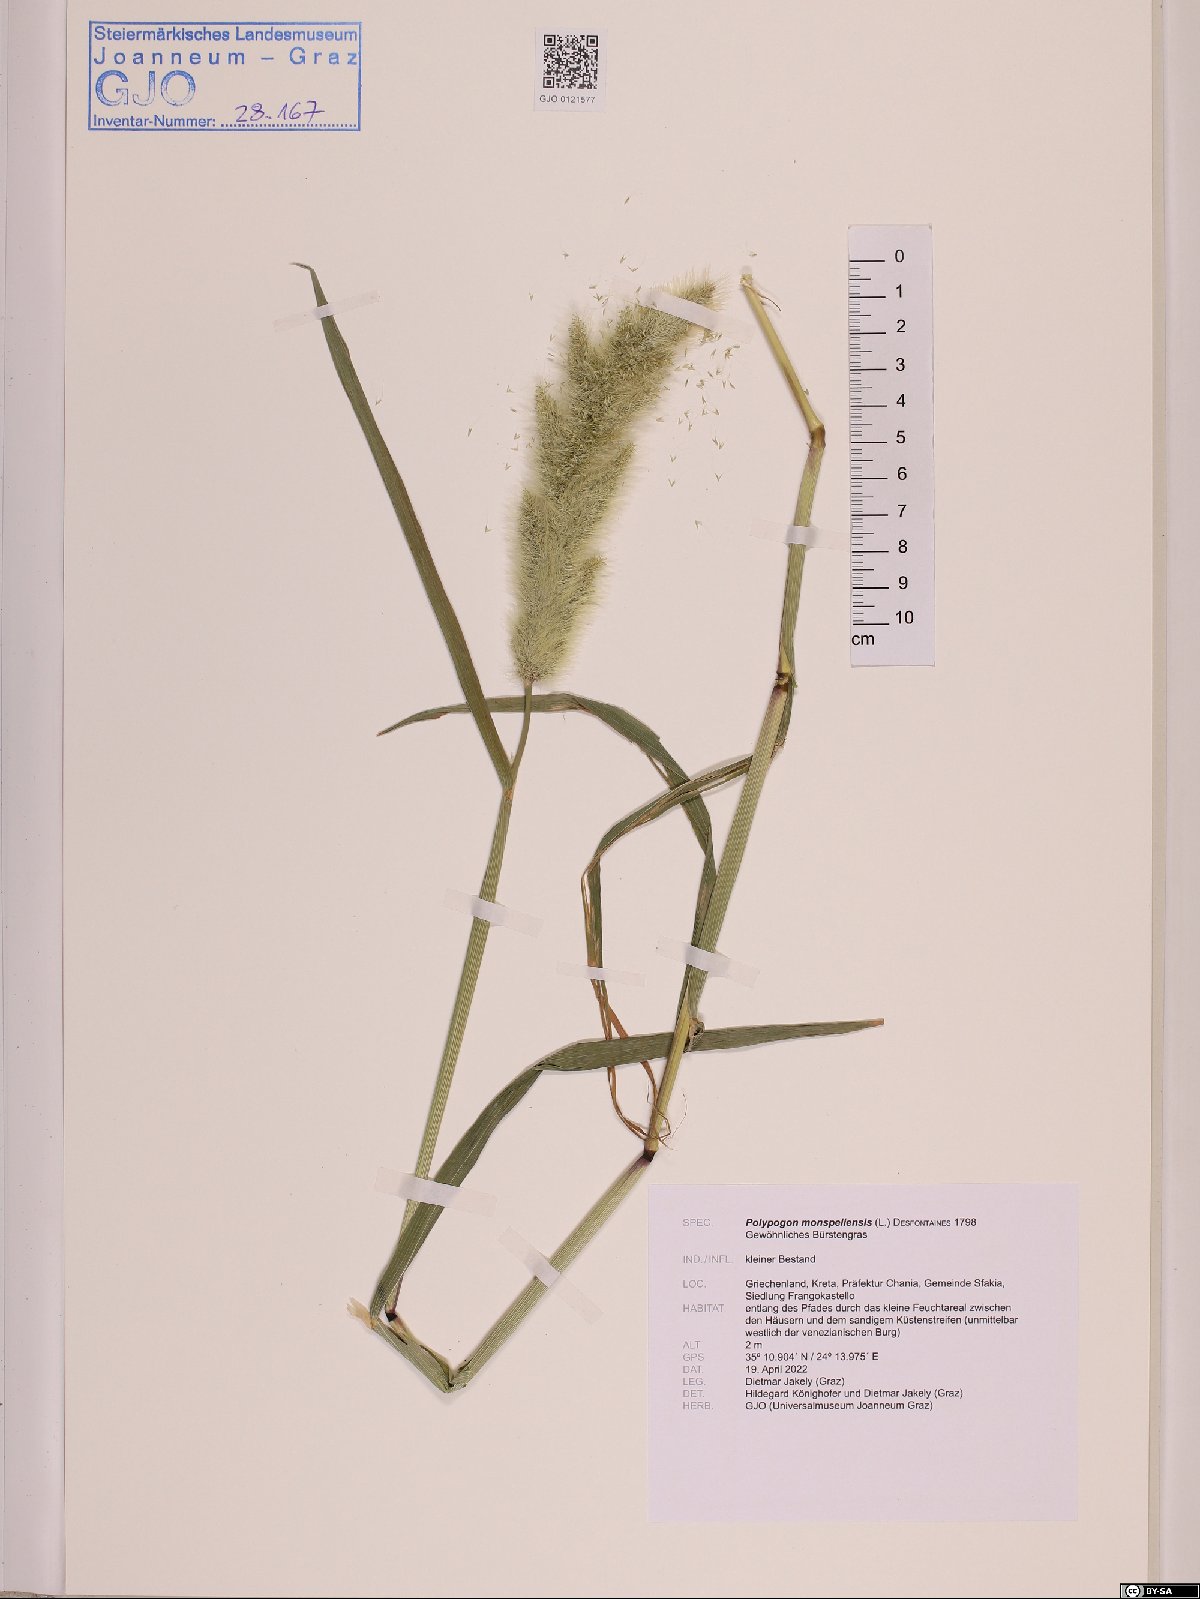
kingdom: Plantae
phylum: Tracheophyta
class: Liliopsida
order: Poales
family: Poaceae
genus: Polypogon
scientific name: Polypogon monspeliensis
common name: Annual rabbitsfoot grass
